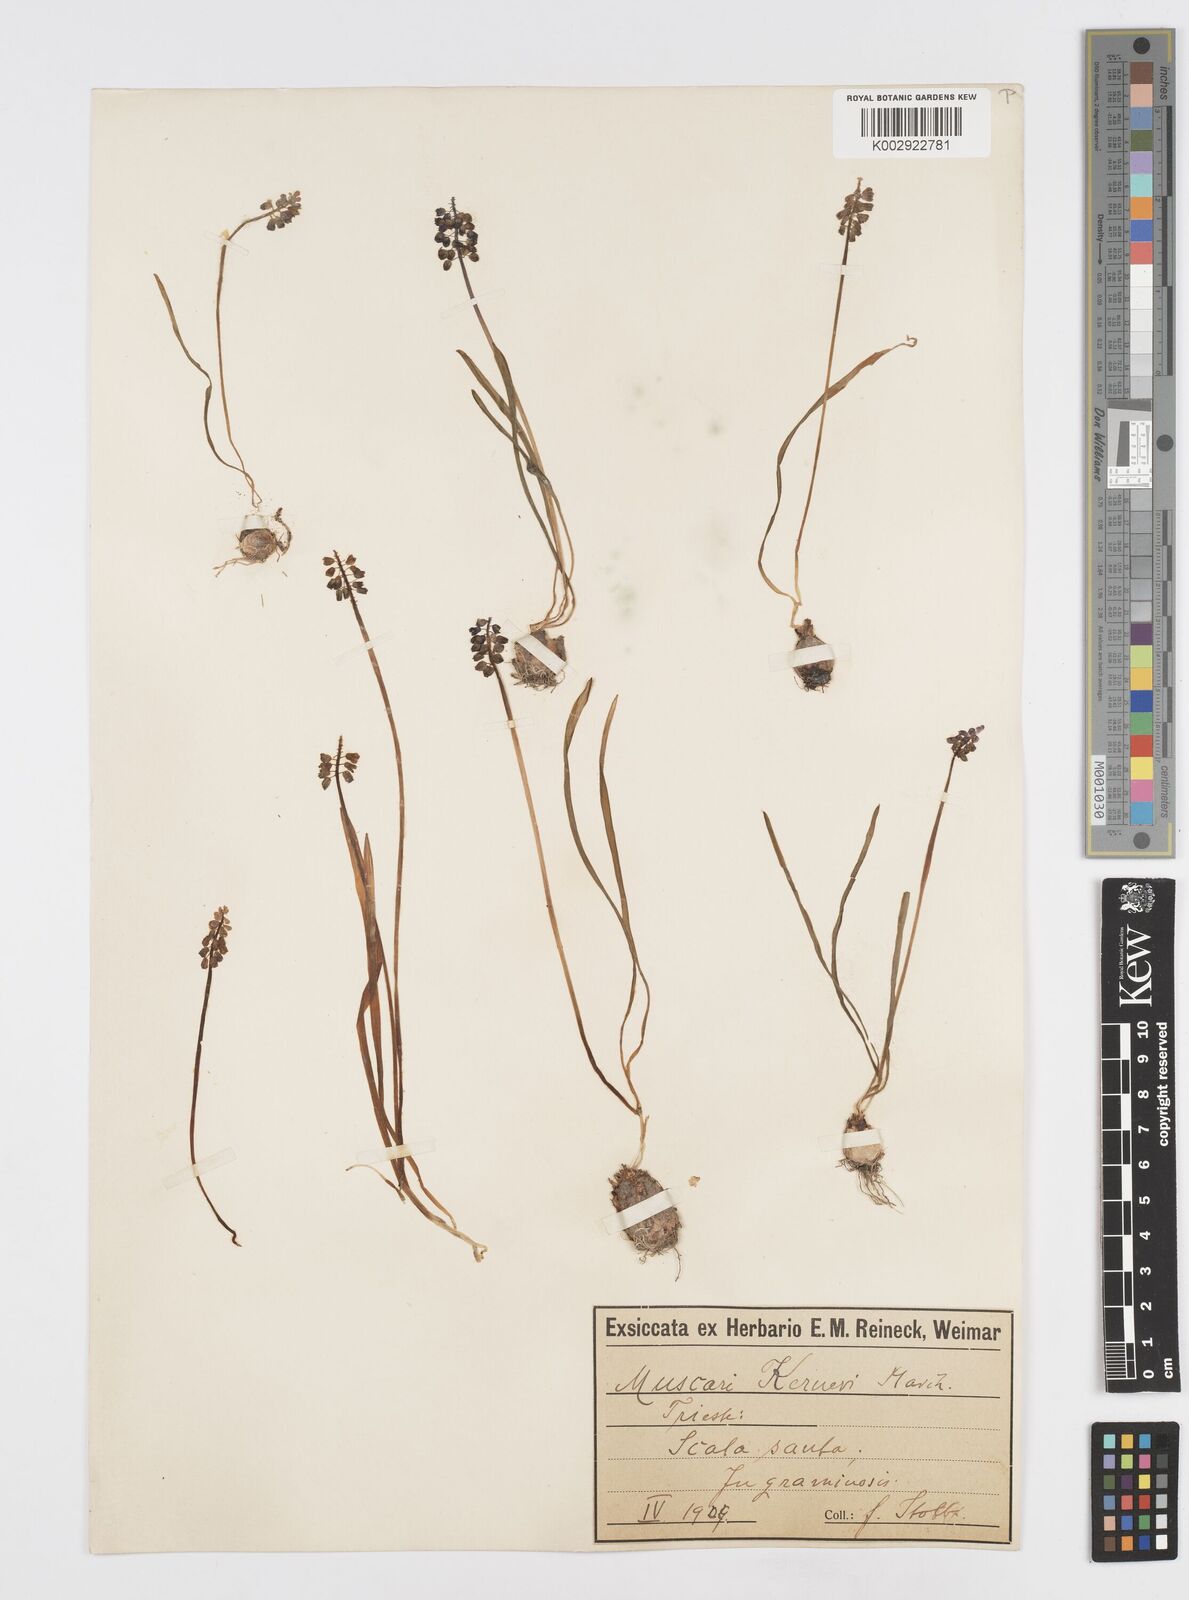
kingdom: Plantae
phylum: Tracheophyta
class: Liliopsida
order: Asparagales
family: Asparagaceae
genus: Muscari
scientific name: Muscari
